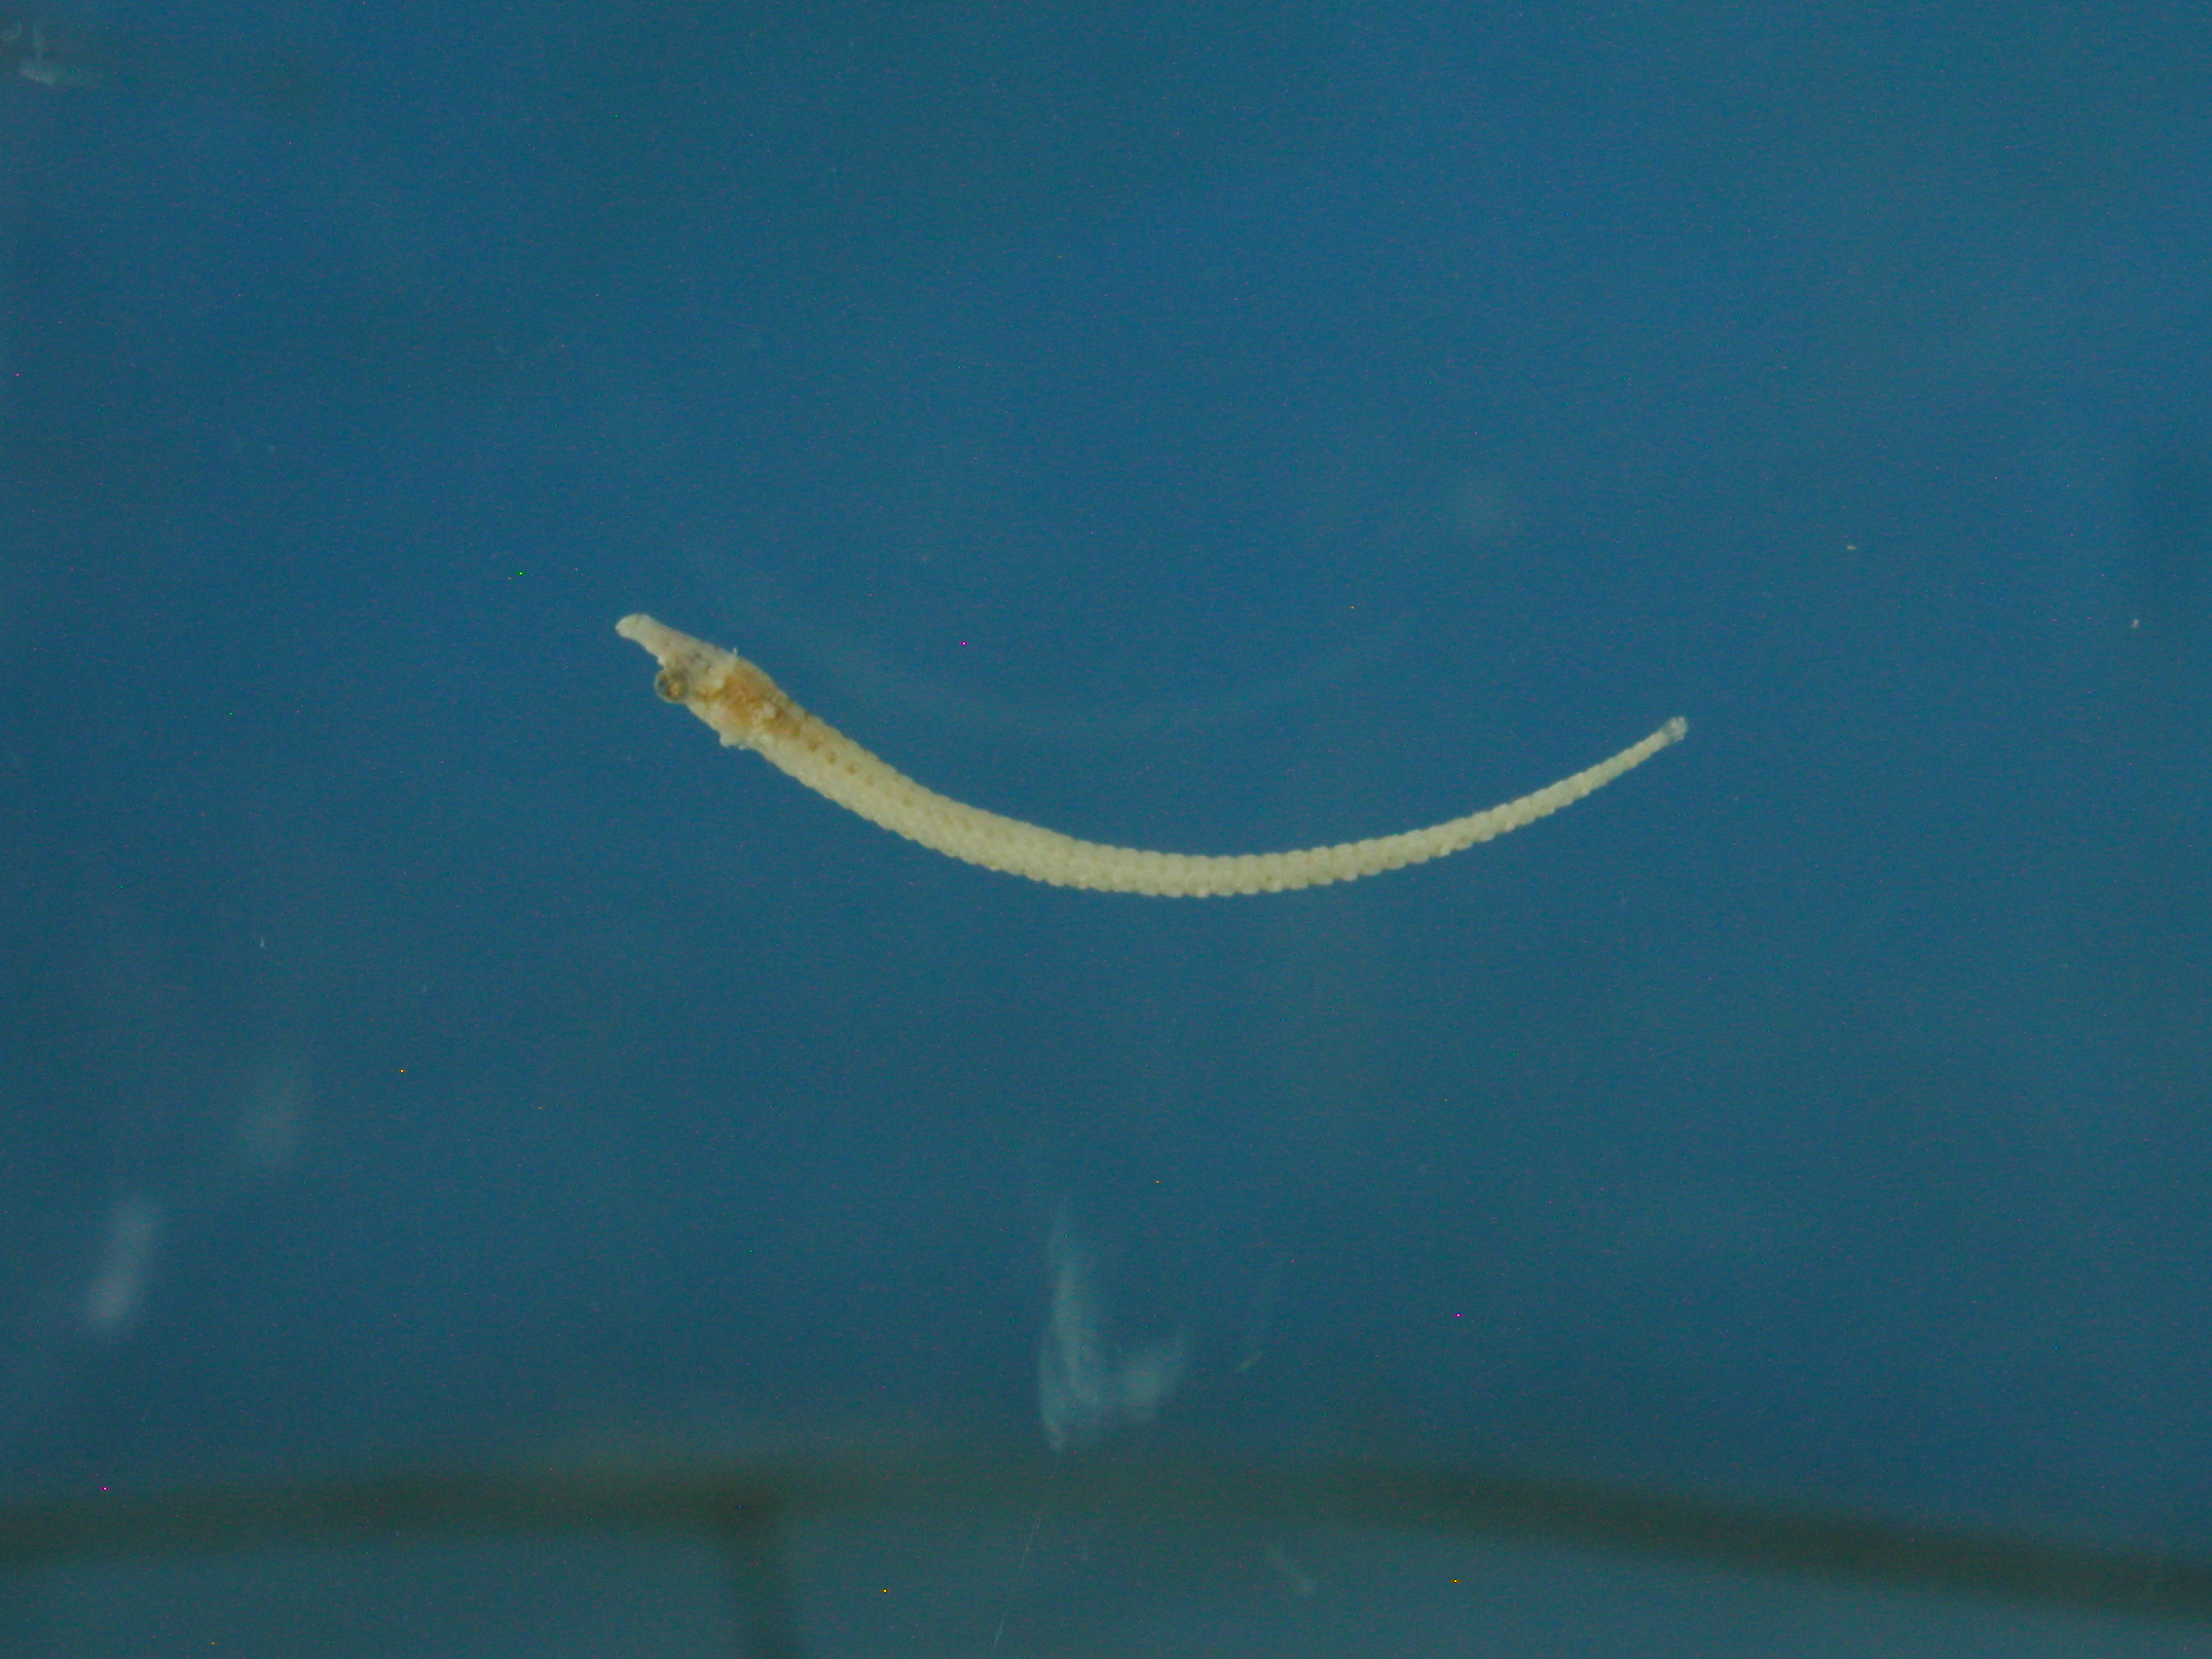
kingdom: Animalia
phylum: Chordata
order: Syngnathiformes
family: Syngnathidae
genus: Cosmocampus
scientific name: Cosmocampus banneri
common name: Banner's pipefish
